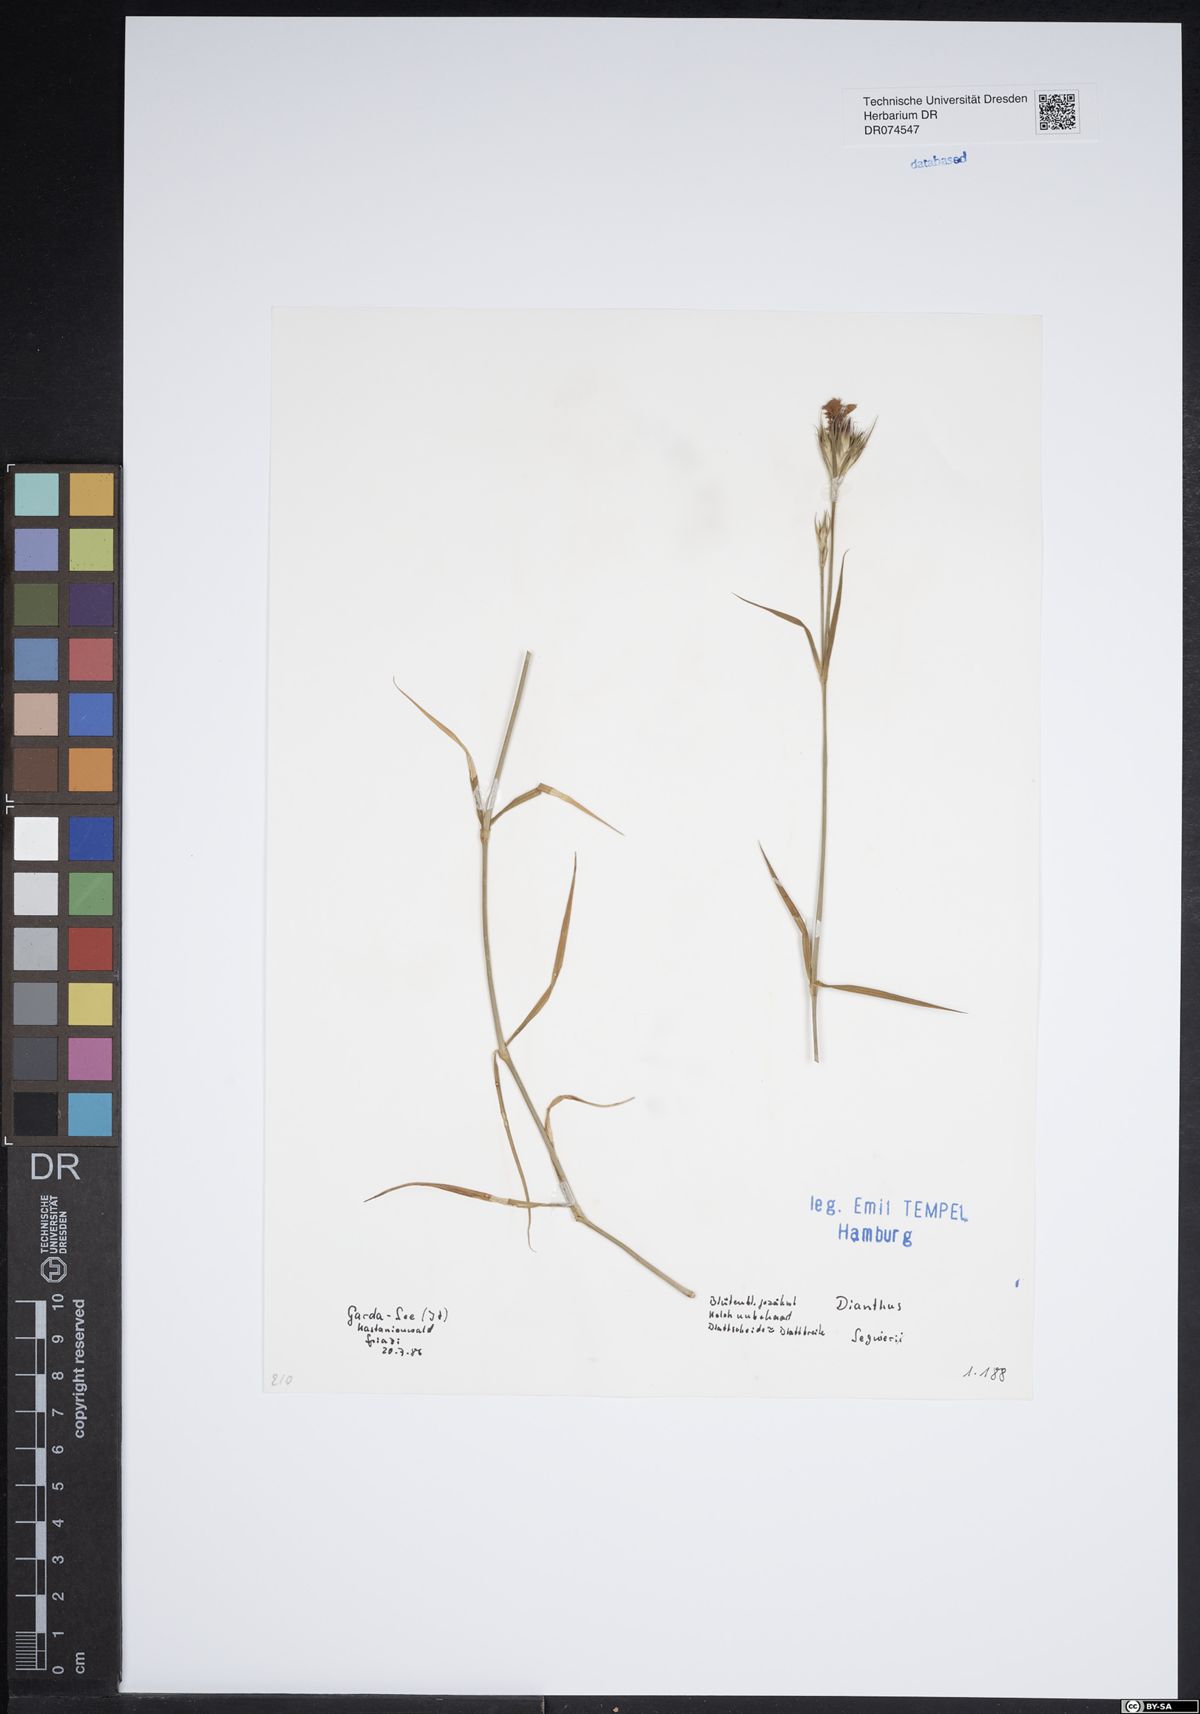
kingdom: Plantae
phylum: Tracheophyta
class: Magnoliopsida
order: Caryophyllales
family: Caryophyllaceae
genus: Dianthus
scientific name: Dianthus seguieri
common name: Ragged pink
